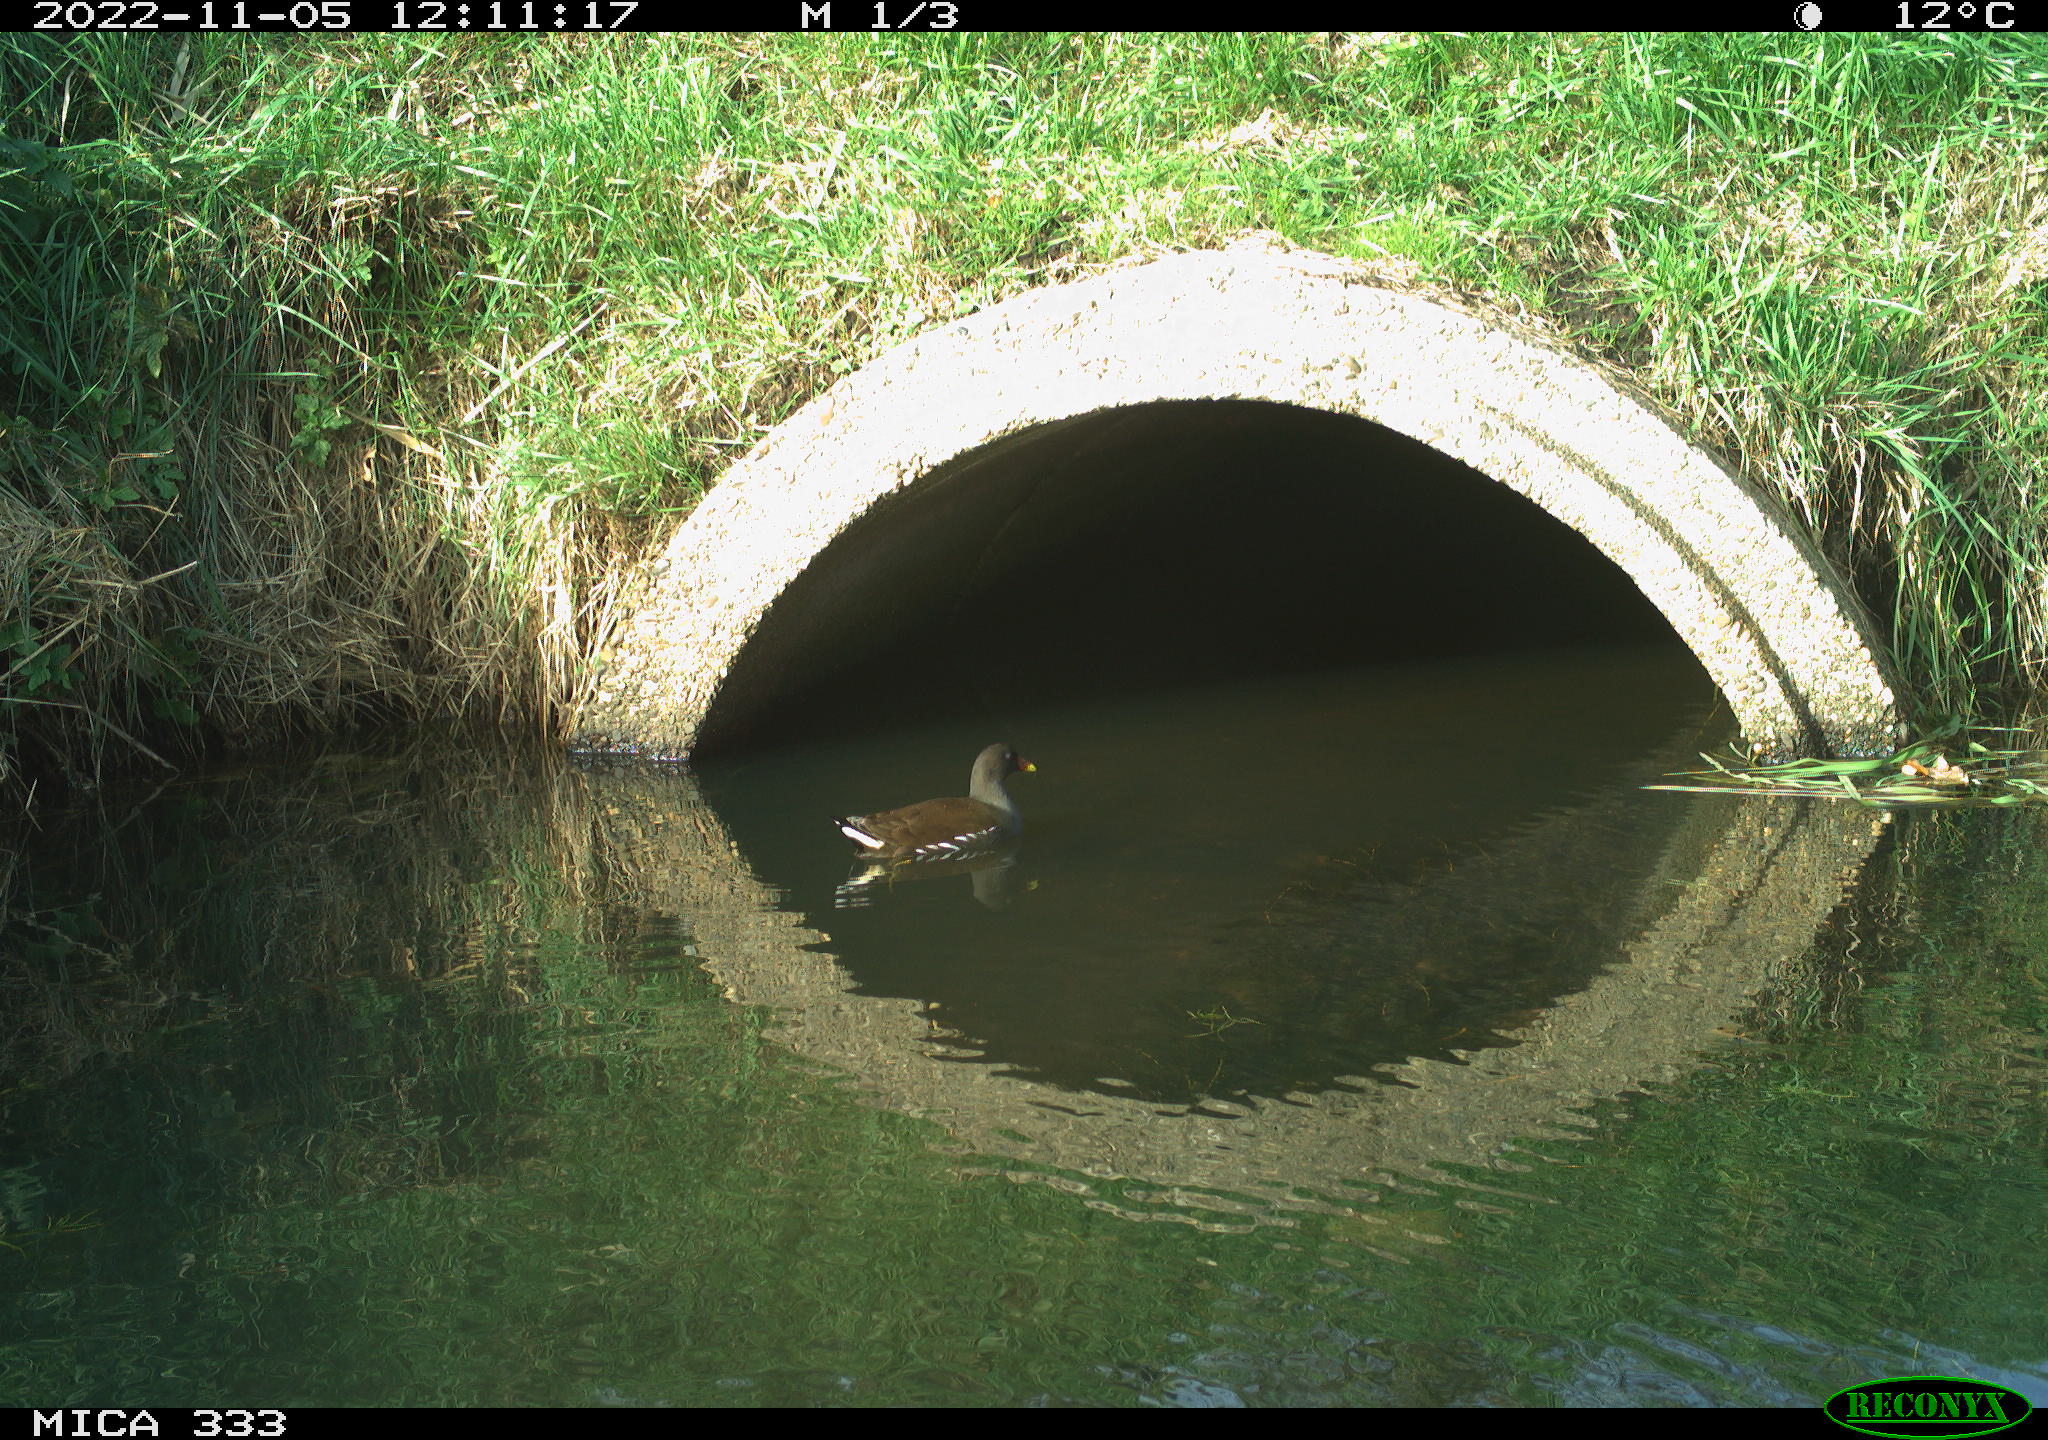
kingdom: Animalia
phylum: Chordata
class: Aves
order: Gruiformes
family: Rallidae
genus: Gallinula
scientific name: Gallinula chloropus
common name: Common moorhen
